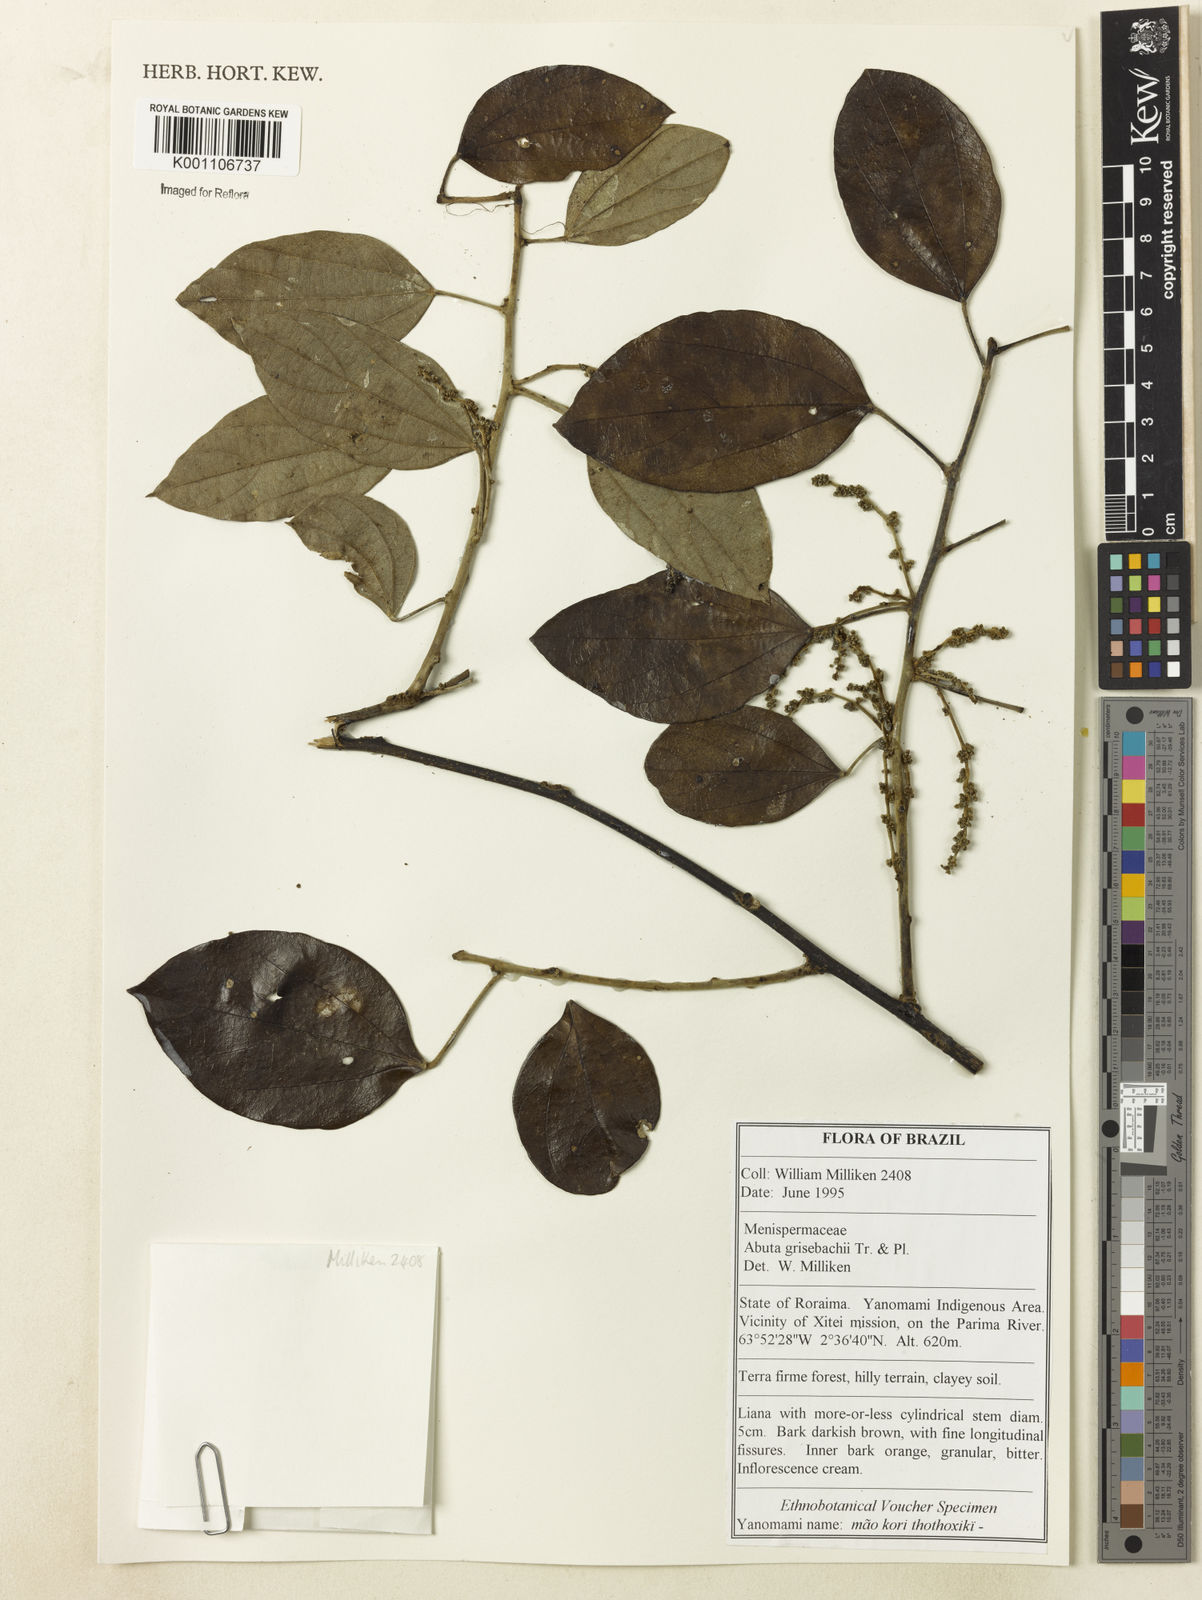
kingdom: Plantae
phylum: Tracheophyta
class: Magnoliopsida
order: Ranunculales
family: Menispermaceae
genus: Abuta
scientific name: Abuta grisebachii
